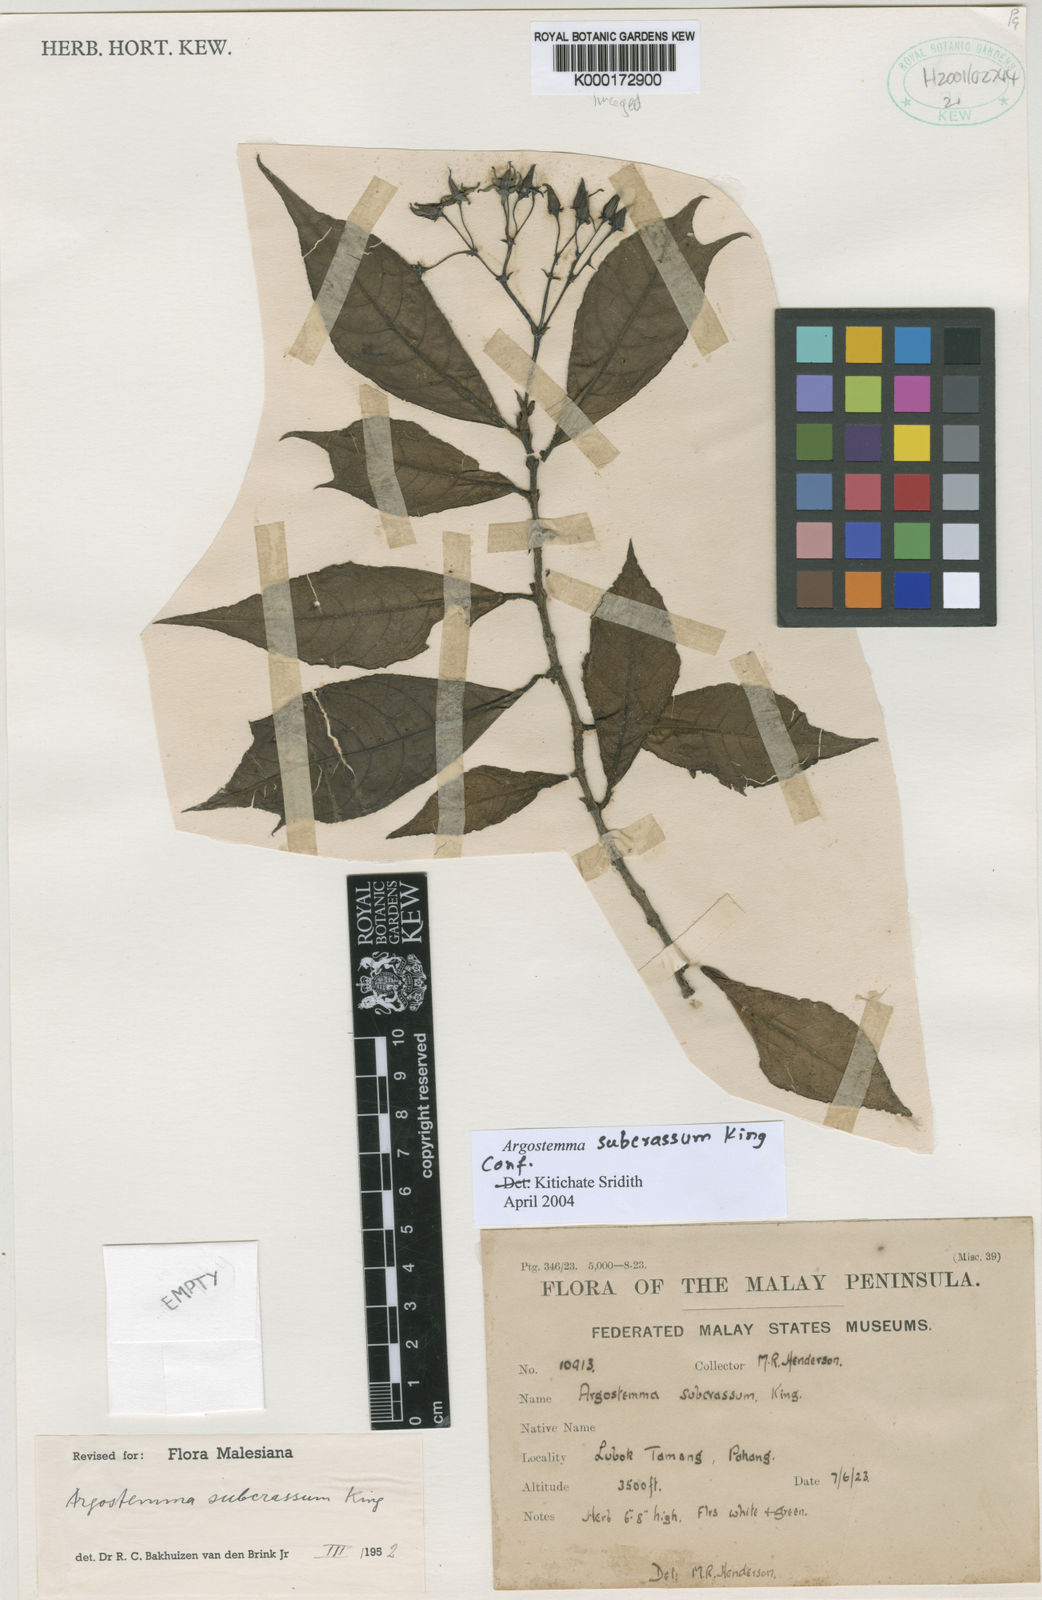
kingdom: Plantae
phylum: Tracheophyta
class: Magnoliopsida
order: Gentianales
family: Rubiaceae
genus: Argostemma
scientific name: Argostemma subcrassum
